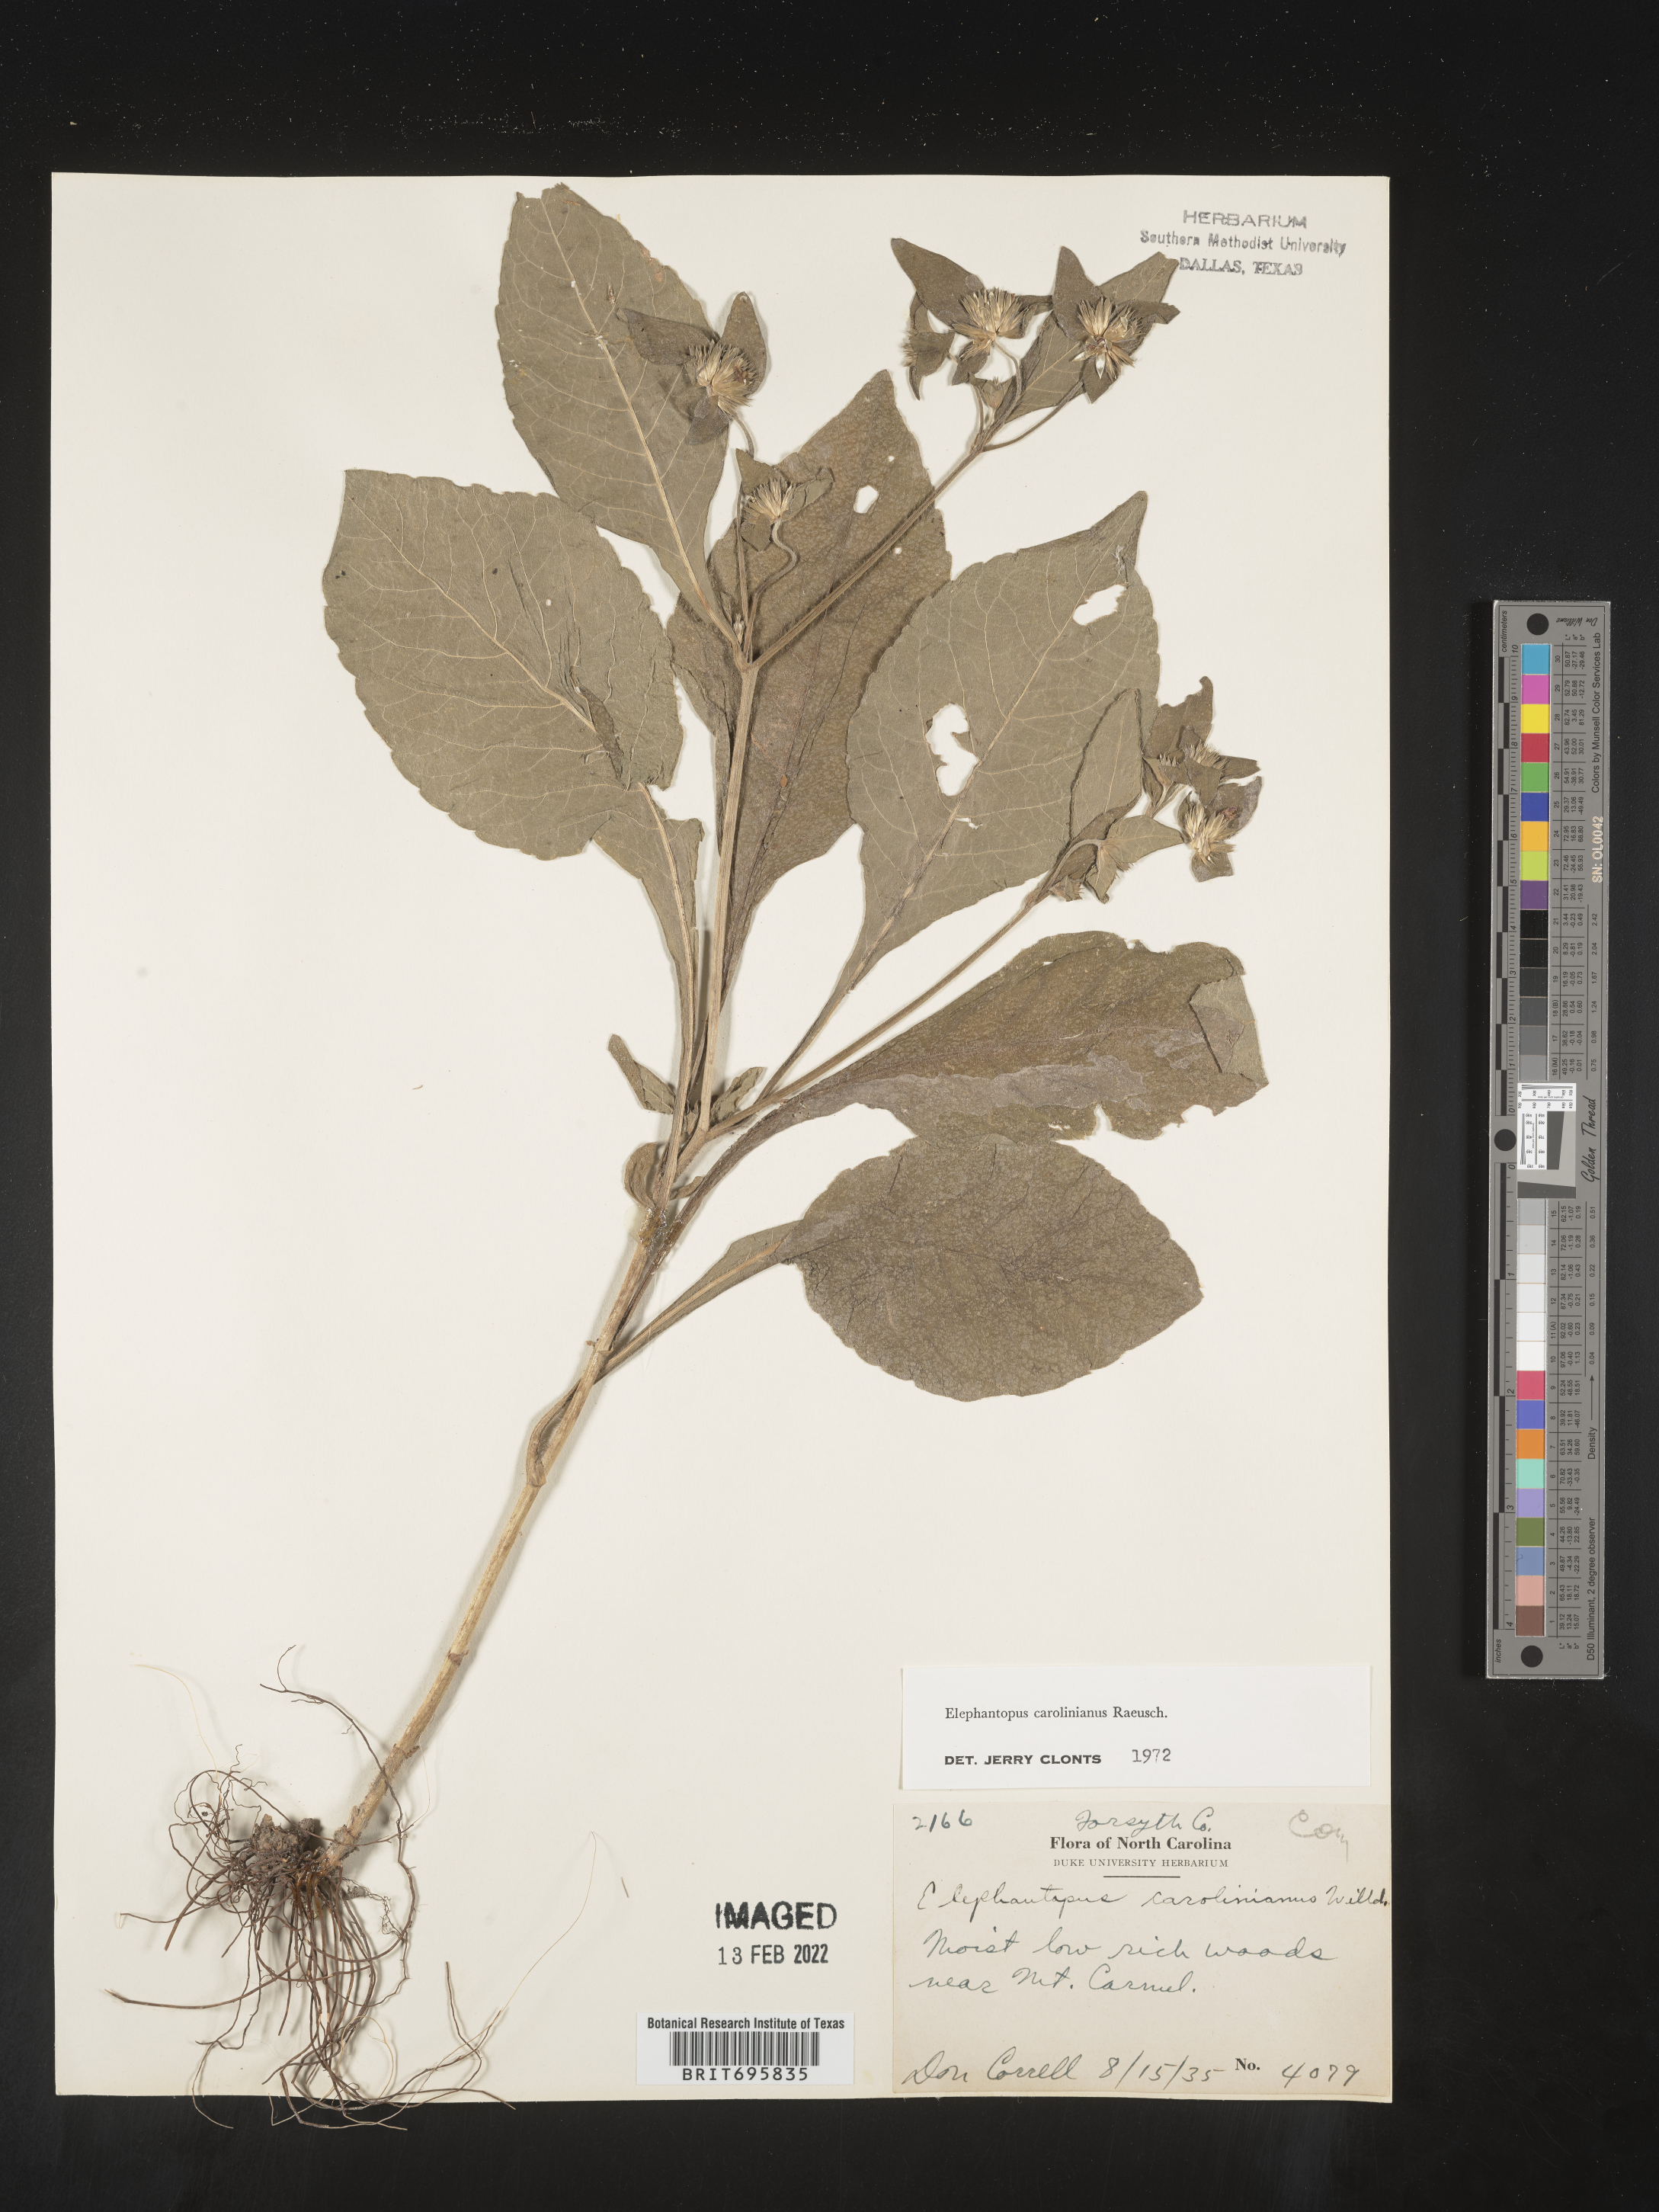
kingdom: Plantae
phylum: Tracheophyta
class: Magnoliopsida
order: Asterales
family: Asteraceae
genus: Elephantopus
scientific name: Elephantopus carolinianus
